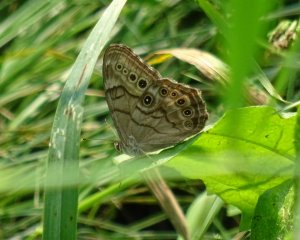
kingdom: Animalia
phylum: Arthropoda
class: Insecta
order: Lepidoptera
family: Nymphalidae
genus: Lethe
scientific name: Lethe anthedon
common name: Northern Pearly-Eye
